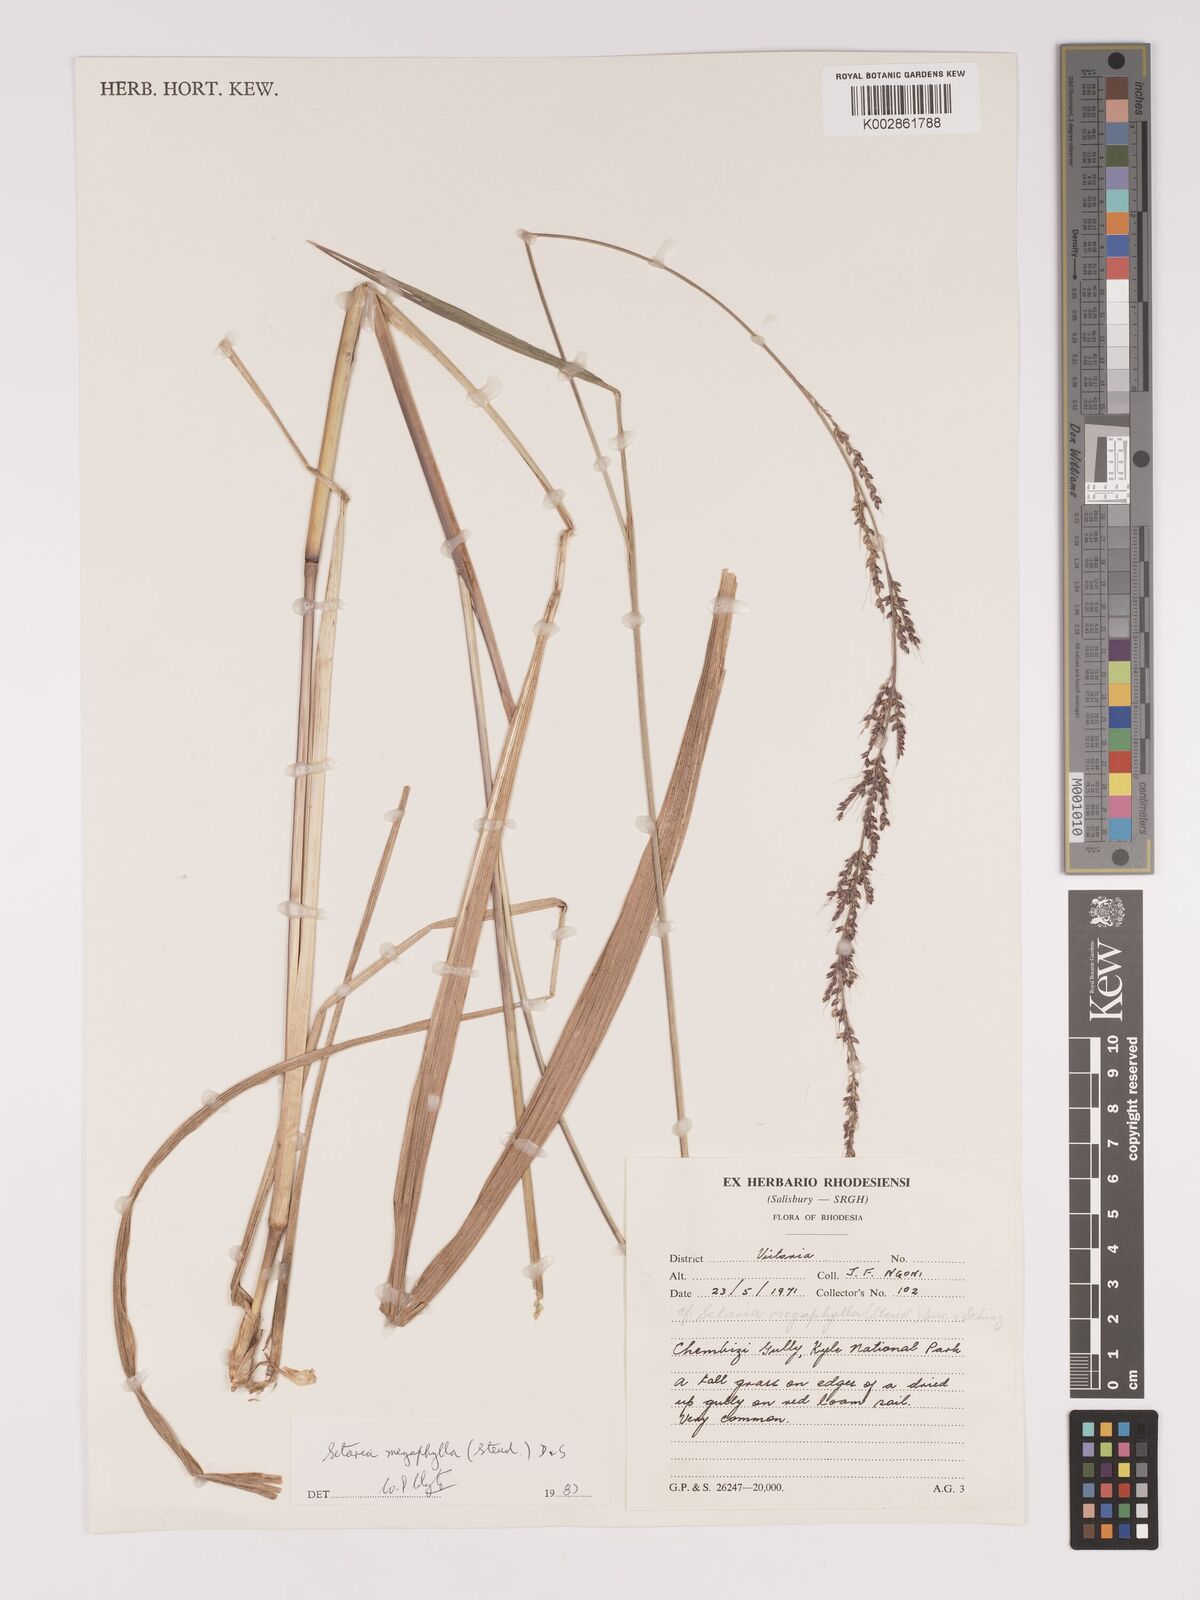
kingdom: Plantae
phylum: Tracheophyta
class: Liliopsida
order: Poales
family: Poaceae
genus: Setaria
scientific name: Setaria megaphylla
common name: Bigleaf bristlegrass
